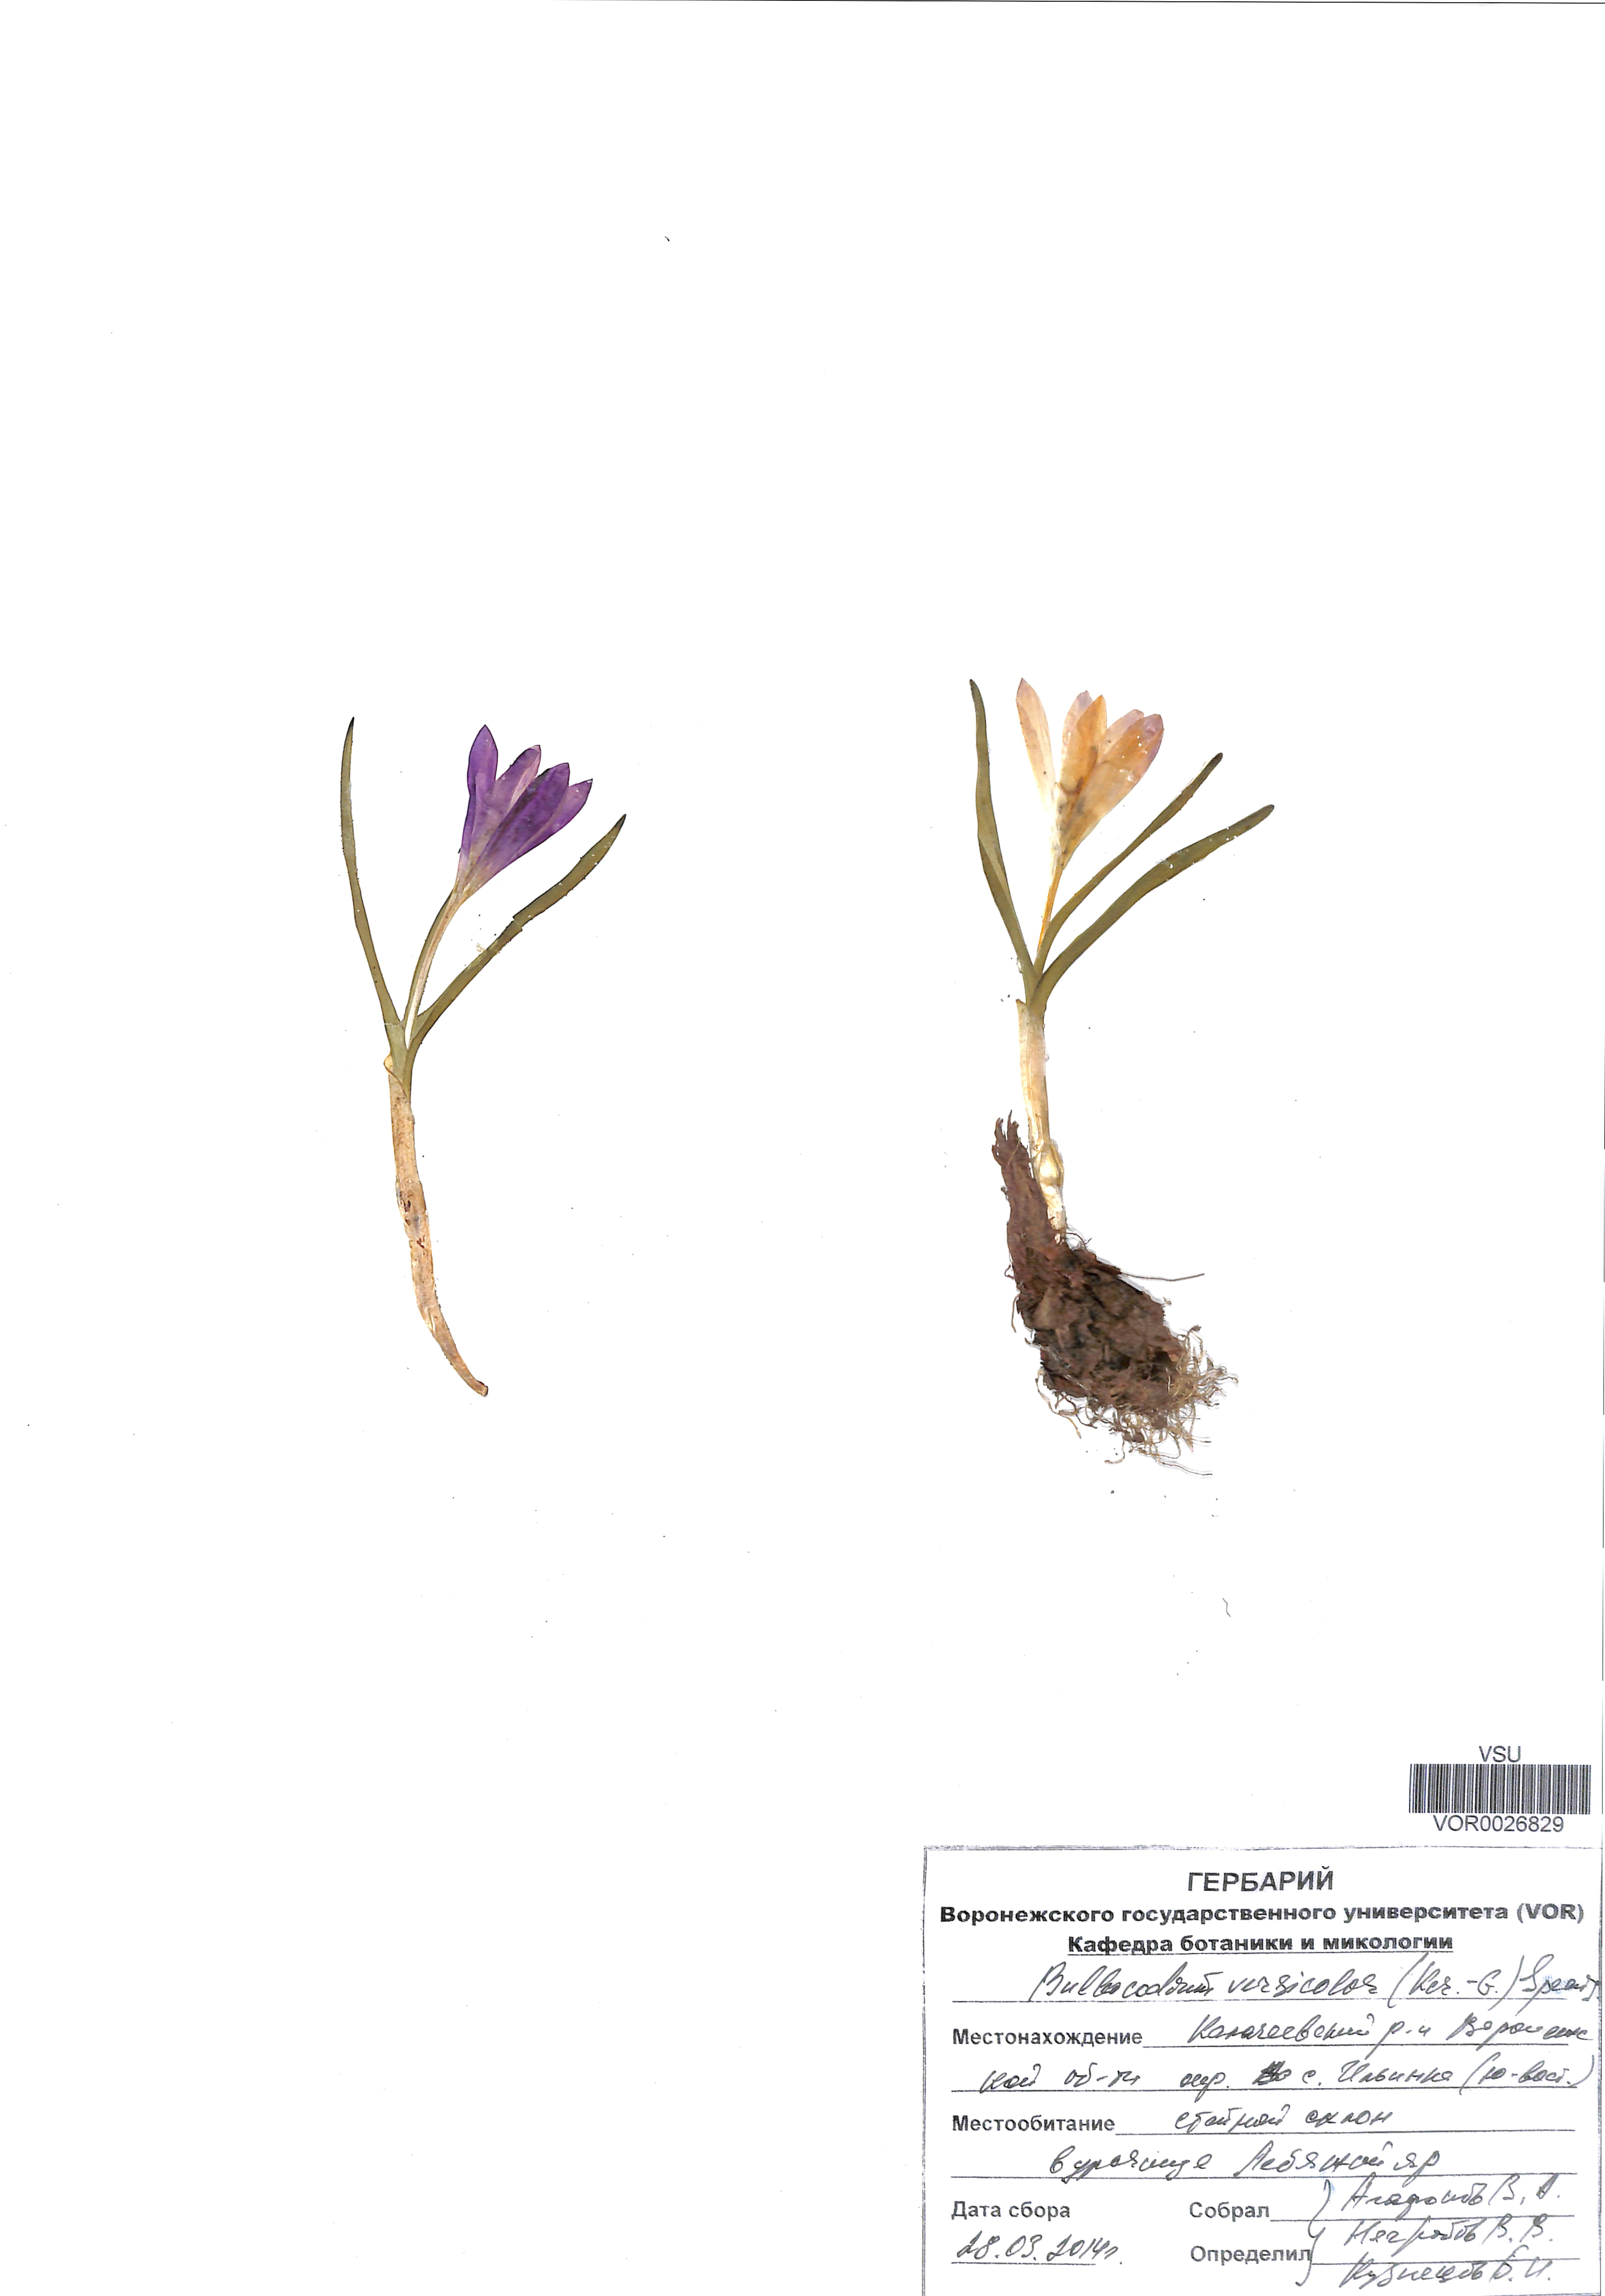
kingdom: Plantae
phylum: Tracheophyta
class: Liliopsida
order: Liliales
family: Colchicaceae
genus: Colchicum
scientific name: Colchicum bulbocodium
